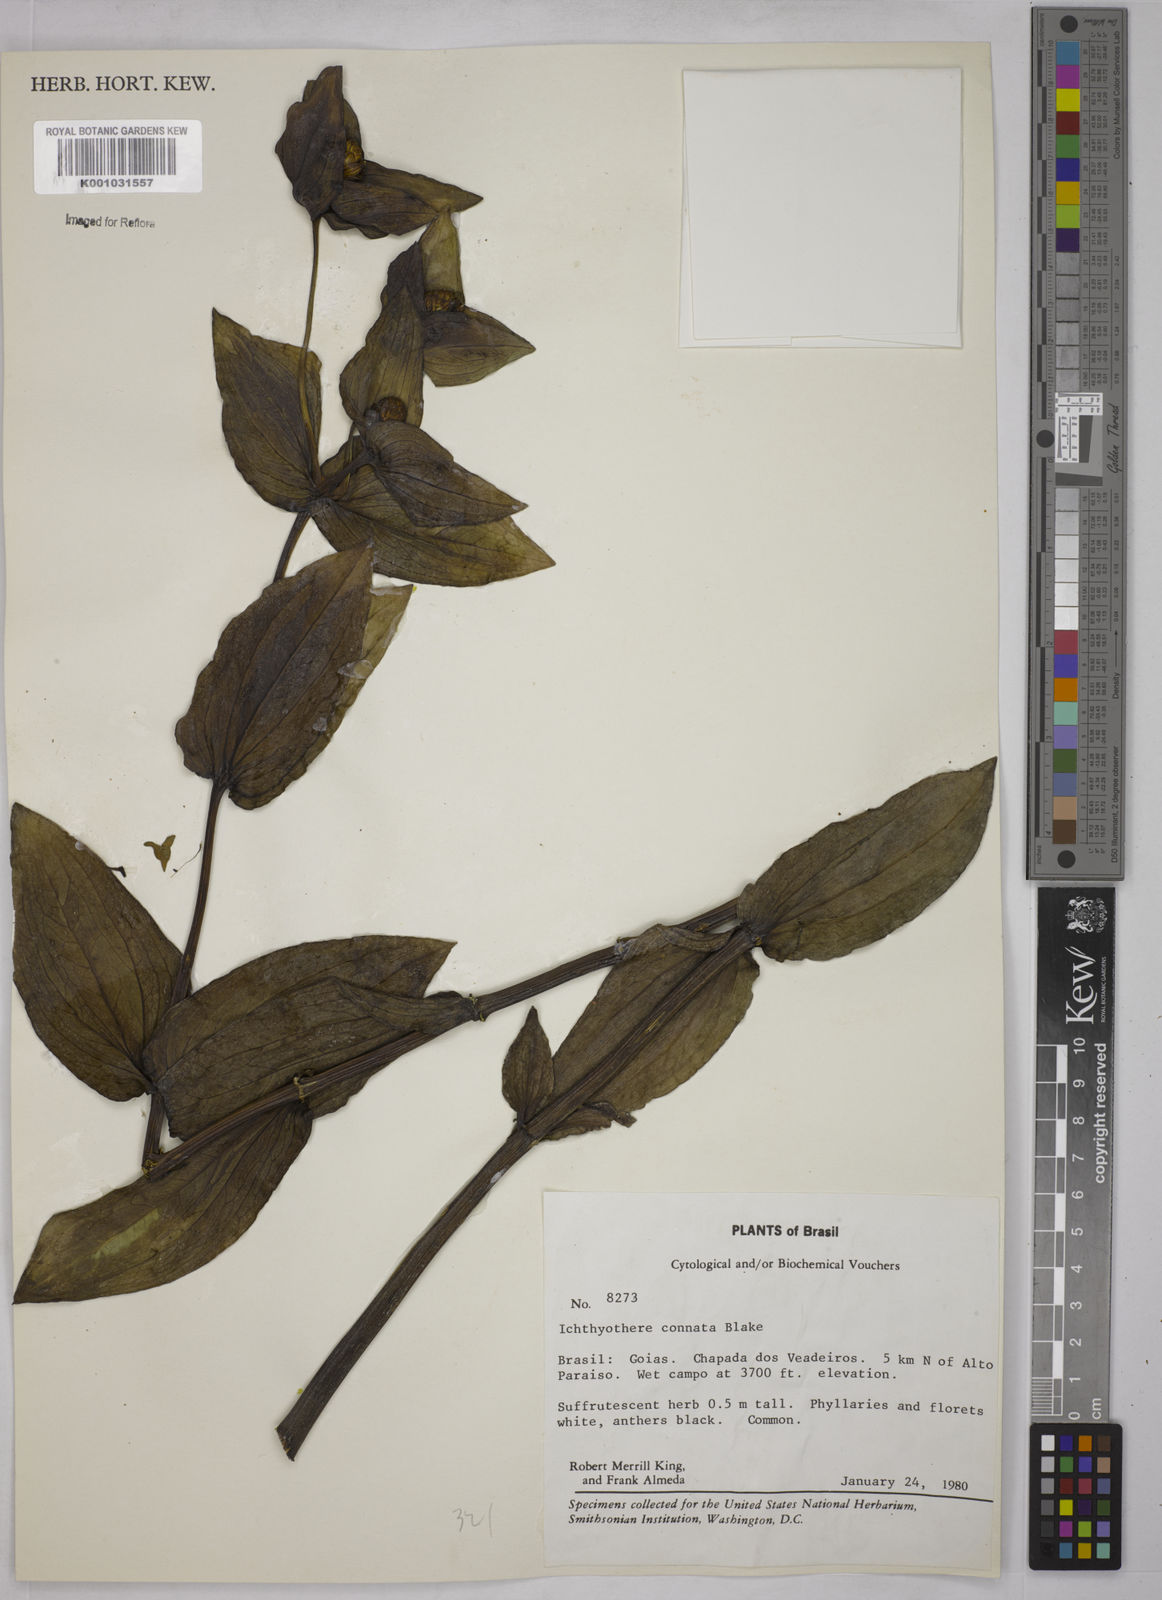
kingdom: Plantae
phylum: Tracheophyta
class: Magnoliopsida
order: Asterales
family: Asteraceae
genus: Ichthyothere
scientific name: Ichthyothere connata
